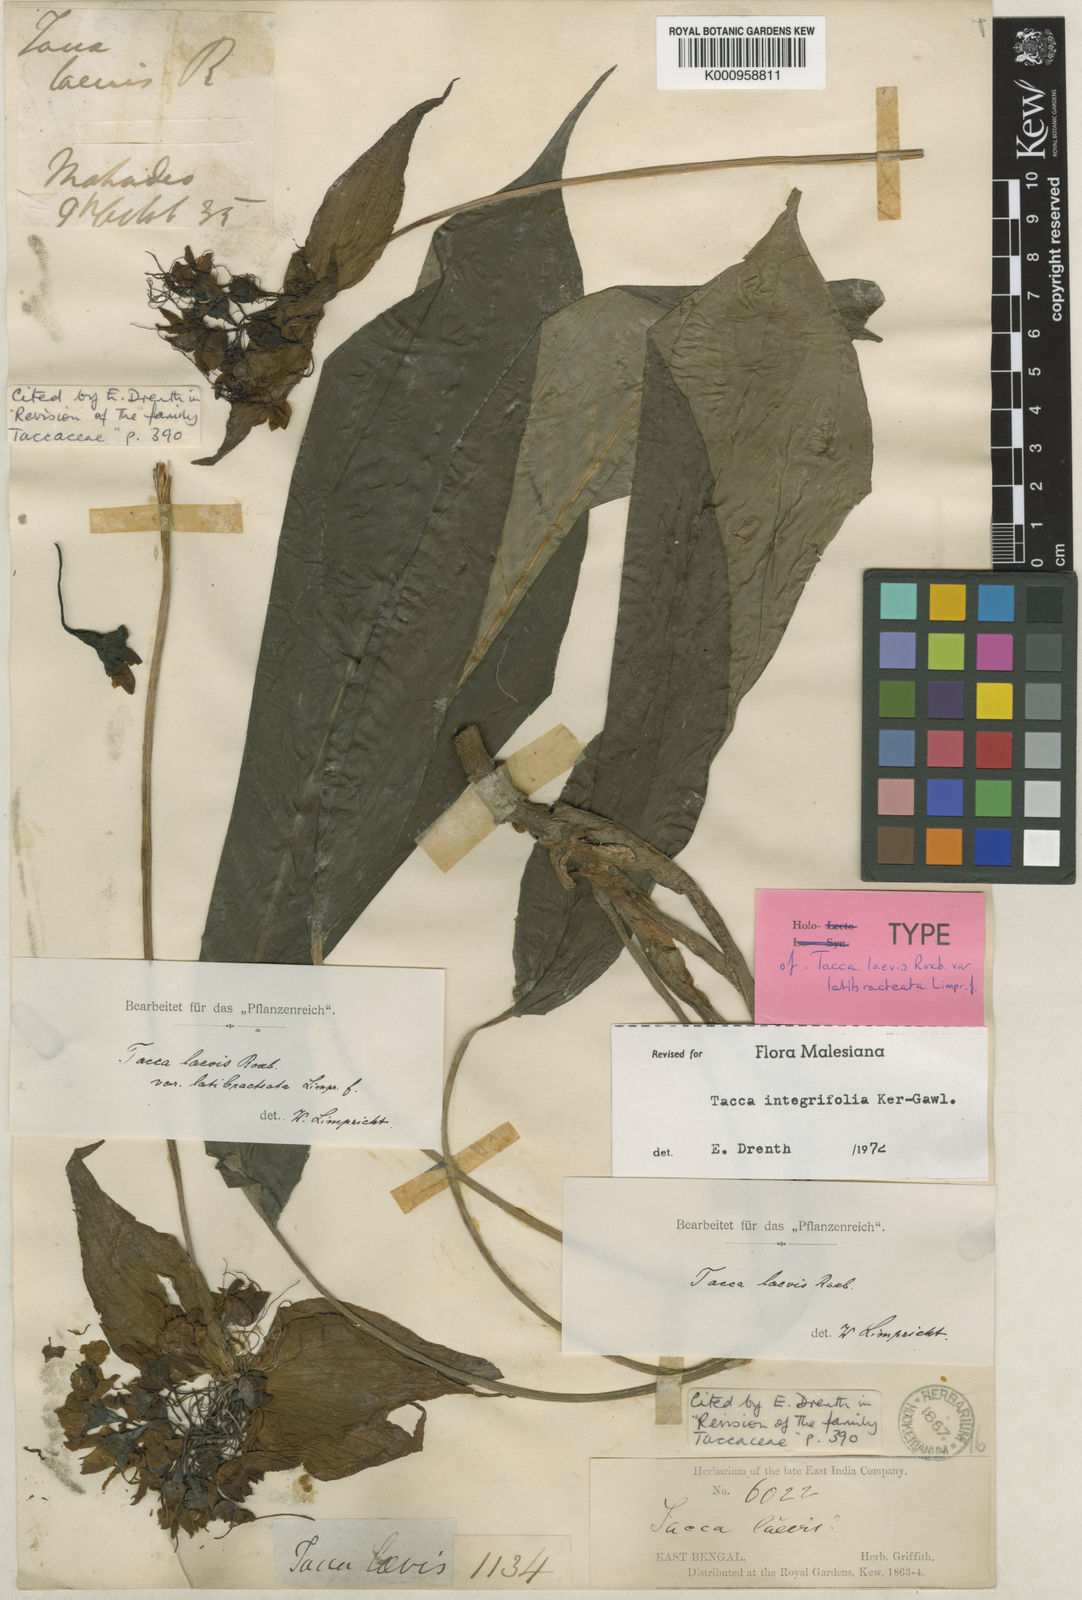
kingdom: Plantae
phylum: Tracheophyta
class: Liliopsida
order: Dioscoreales
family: Dioscoreaceae
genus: Tacca
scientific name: Tacca integrifolia
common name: Batplant
